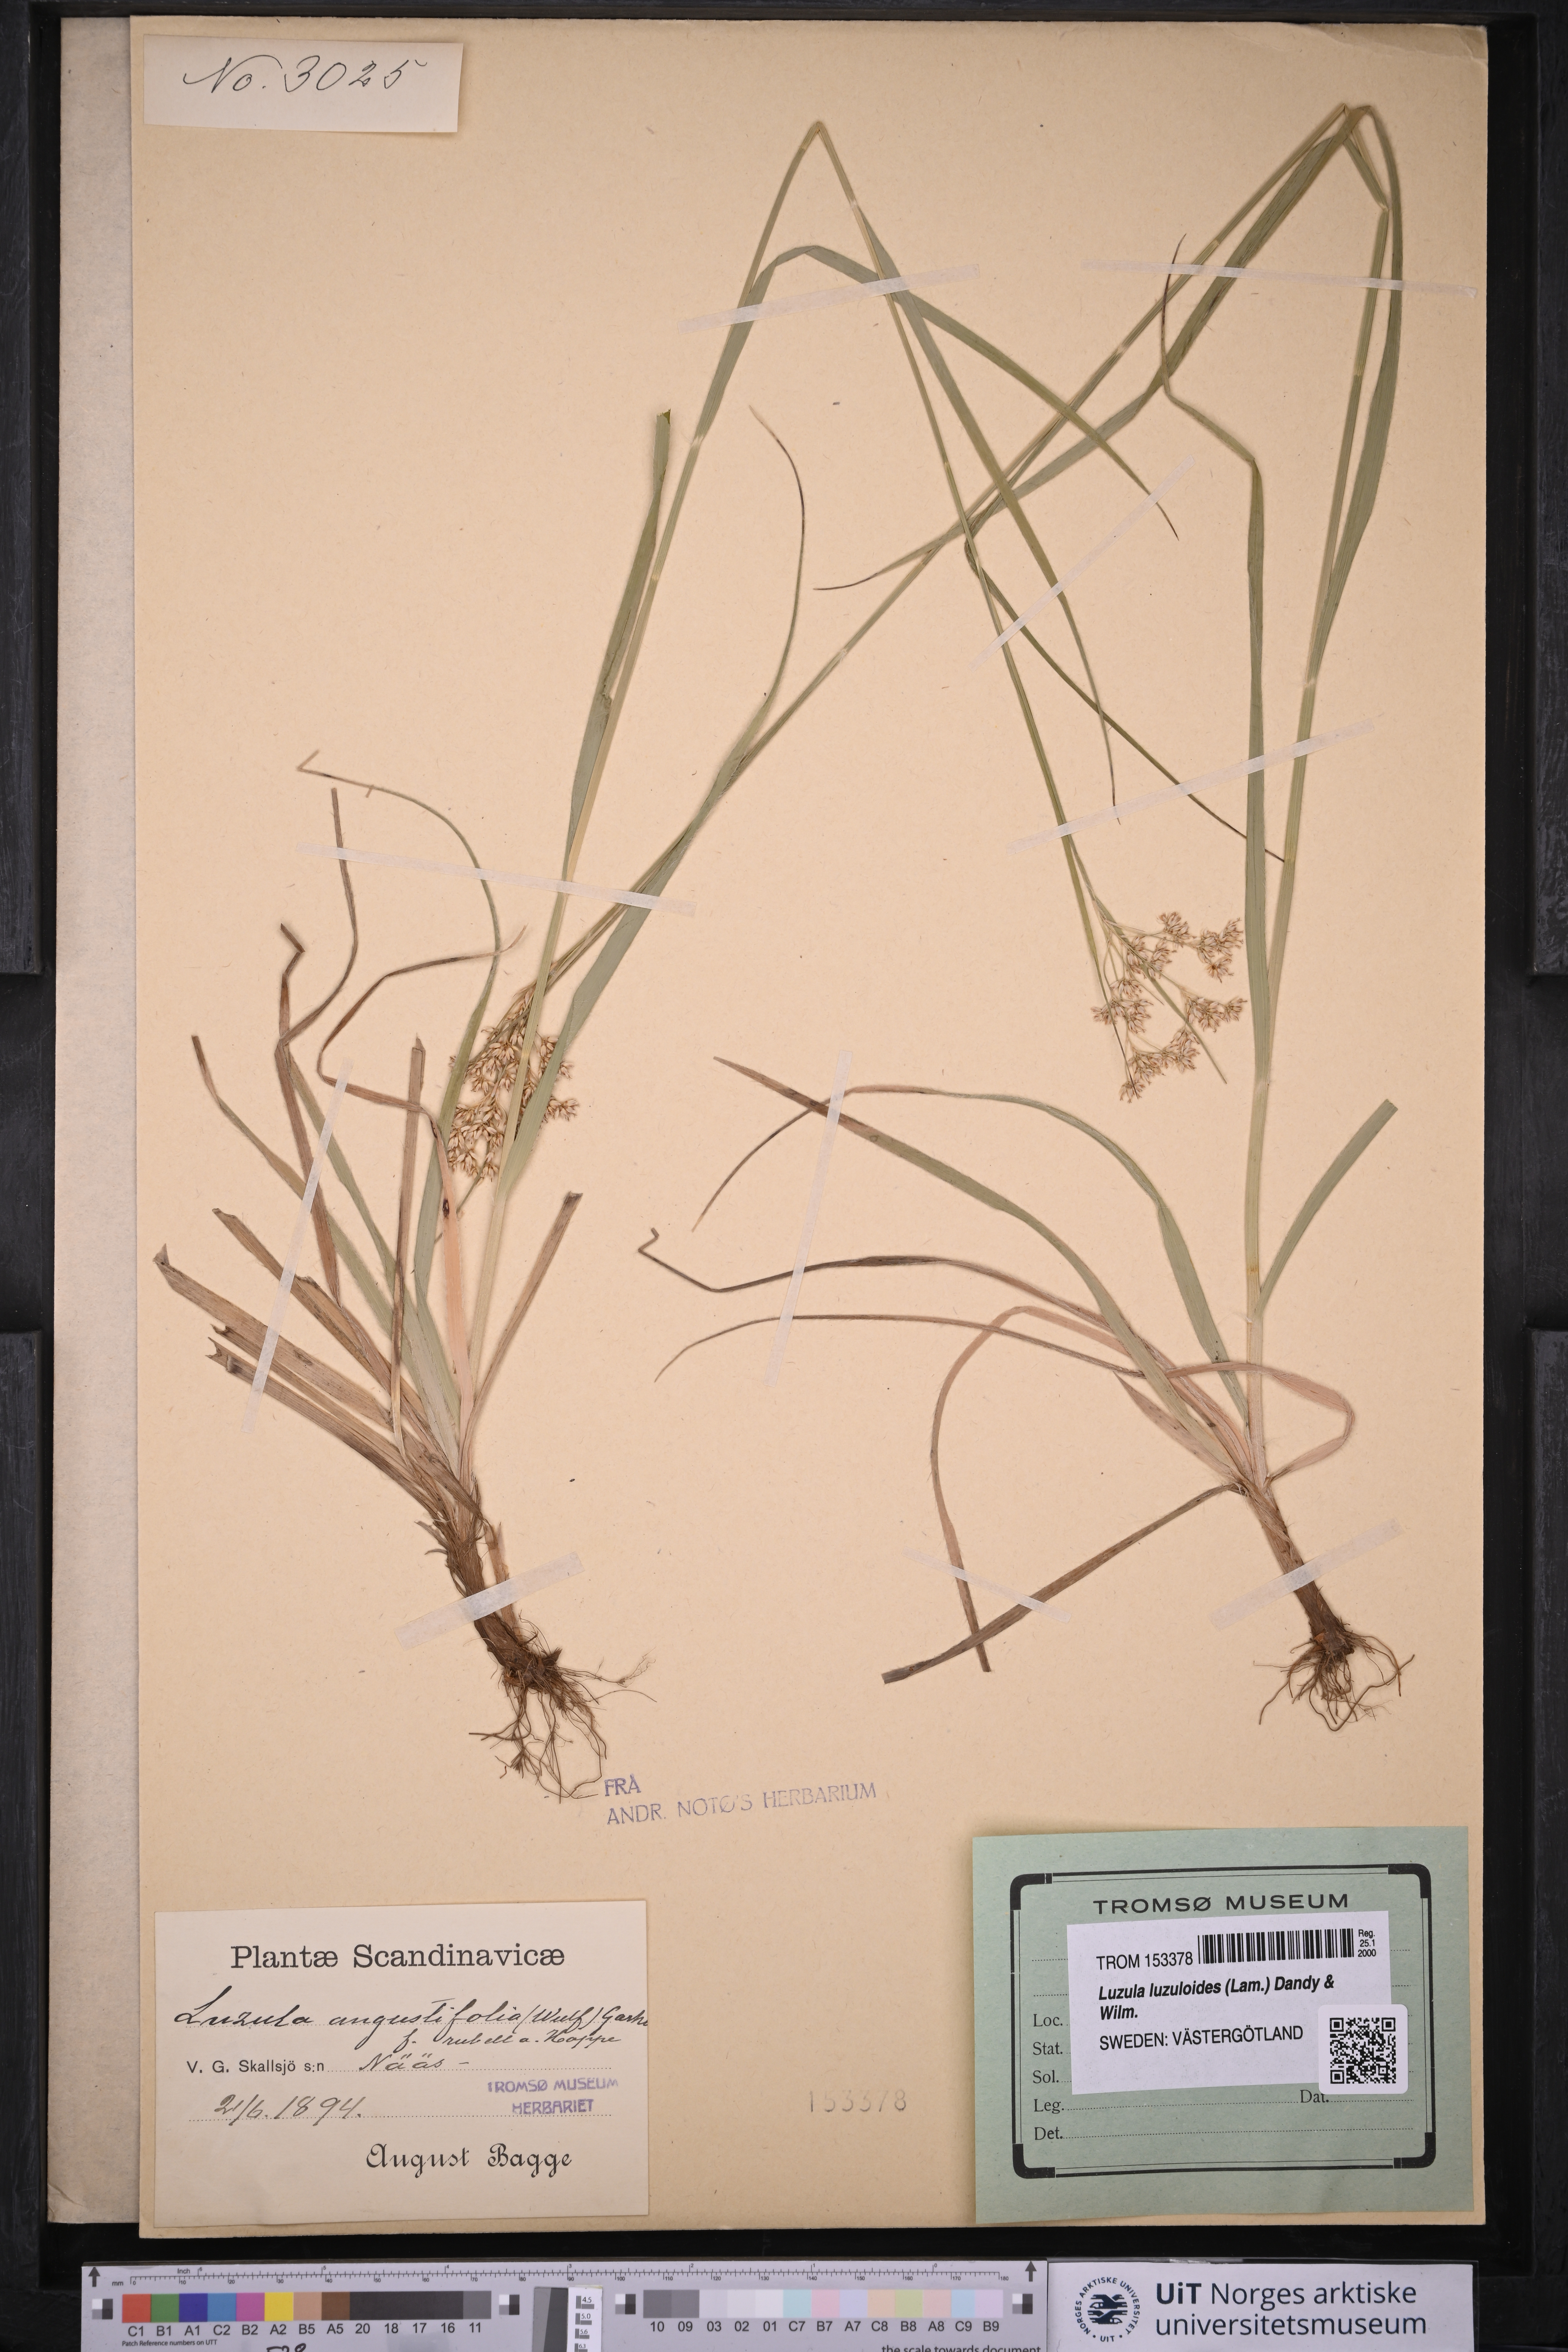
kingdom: Plantae
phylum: Tracheophyta
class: Liliopsida
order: Poales
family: Juncaceae
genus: Luzula
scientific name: Luzula luzuloides
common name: White wood-rush
